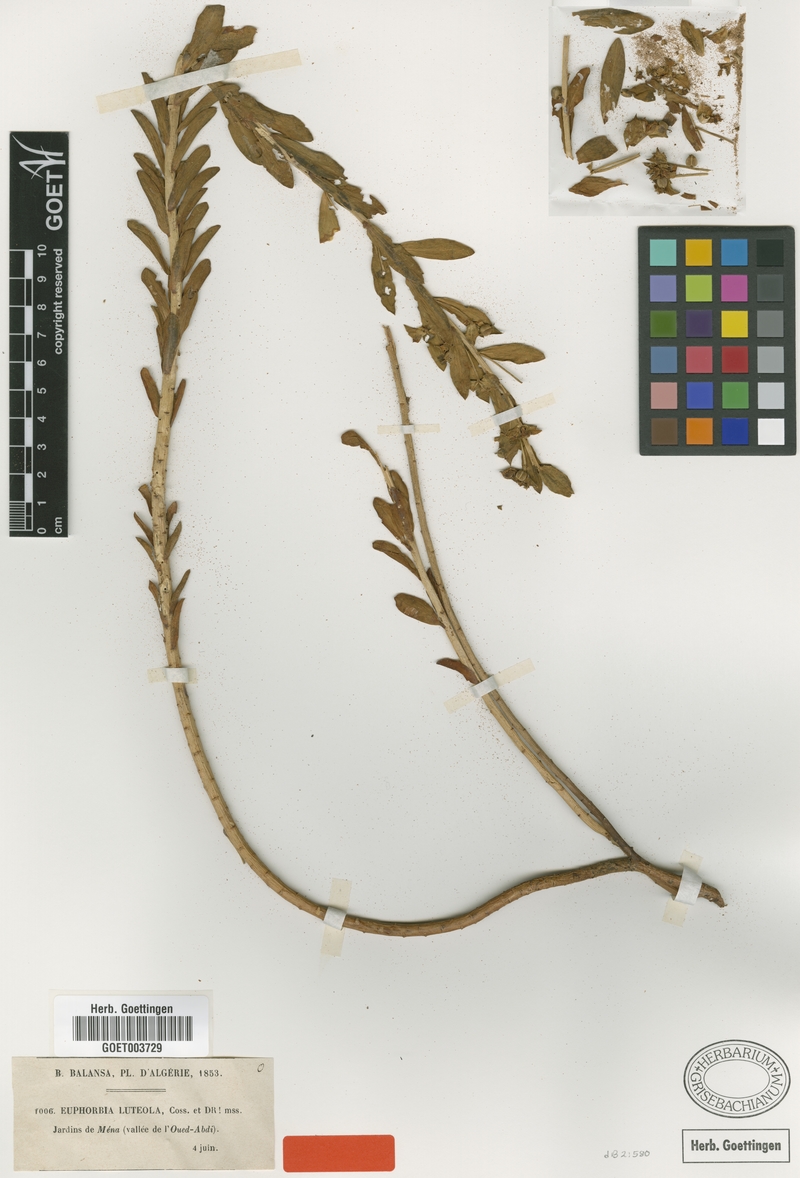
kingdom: Plantae
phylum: Tracheophyta
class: Magnoliopsida
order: Malpighiales
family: Euphorbiaceae
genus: Euphorbia
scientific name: Euphorbia luteola
